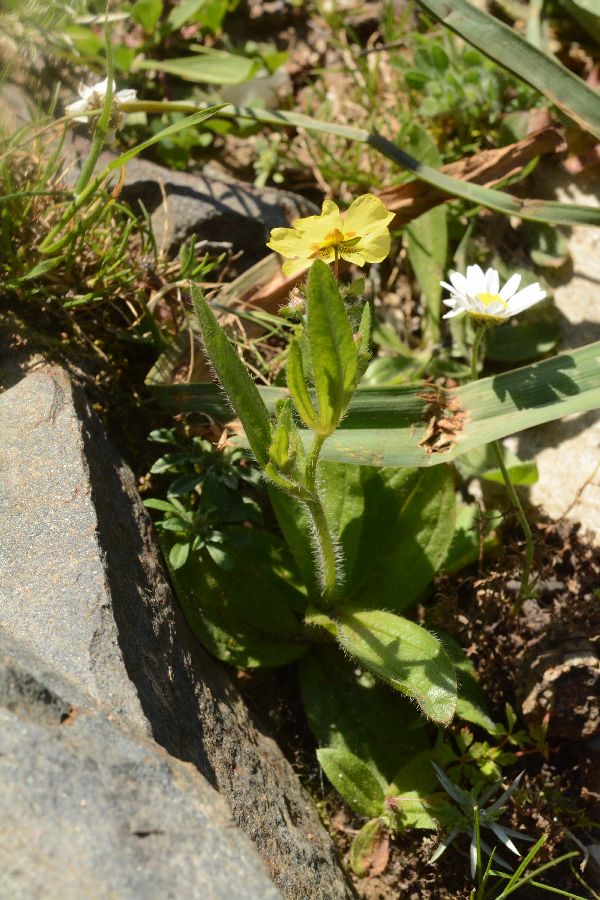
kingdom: Plantae
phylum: Tracheophyta
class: Magnoliopsida
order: Malvales
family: Cistaceae
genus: Tuberaria
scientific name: Tuberaria guttata
